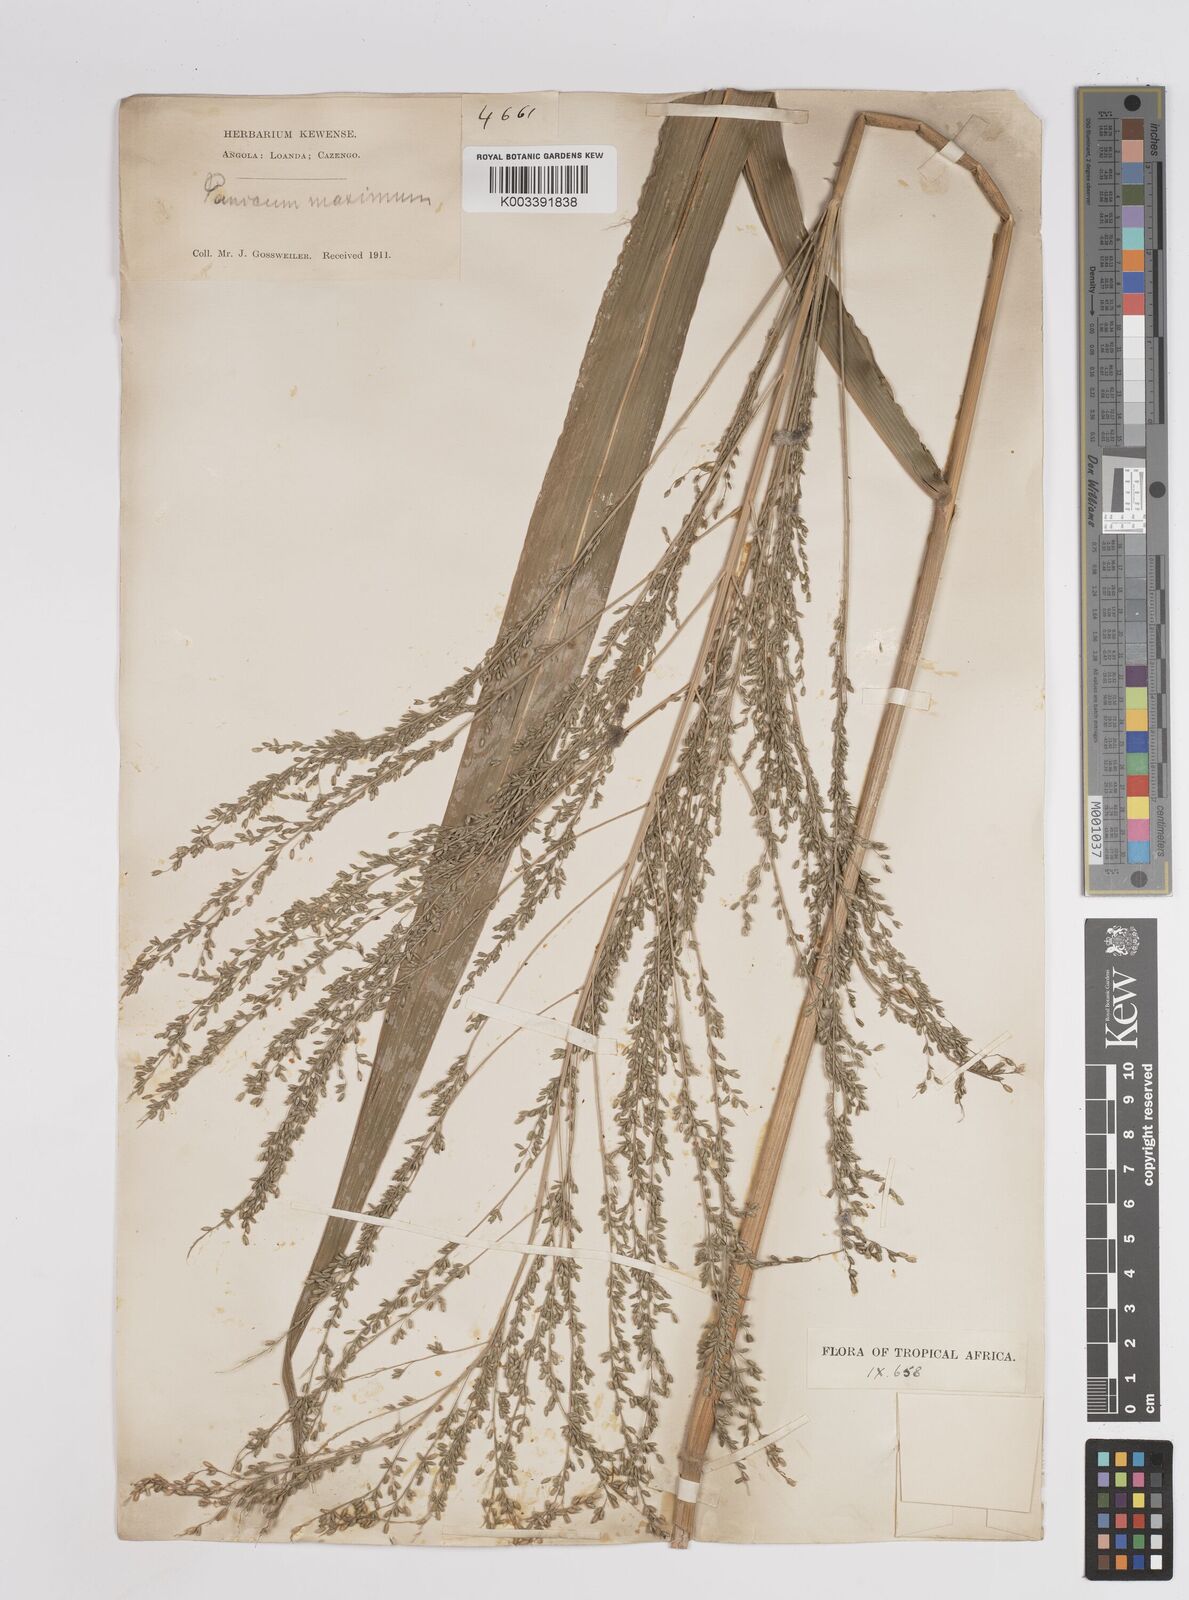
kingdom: Plantae
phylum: Tracheophyta
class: Liliopsida
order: Poales
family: Poaceae
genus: Megathyrsus
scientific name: Megathyrsus maximus
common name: Guineagrass
